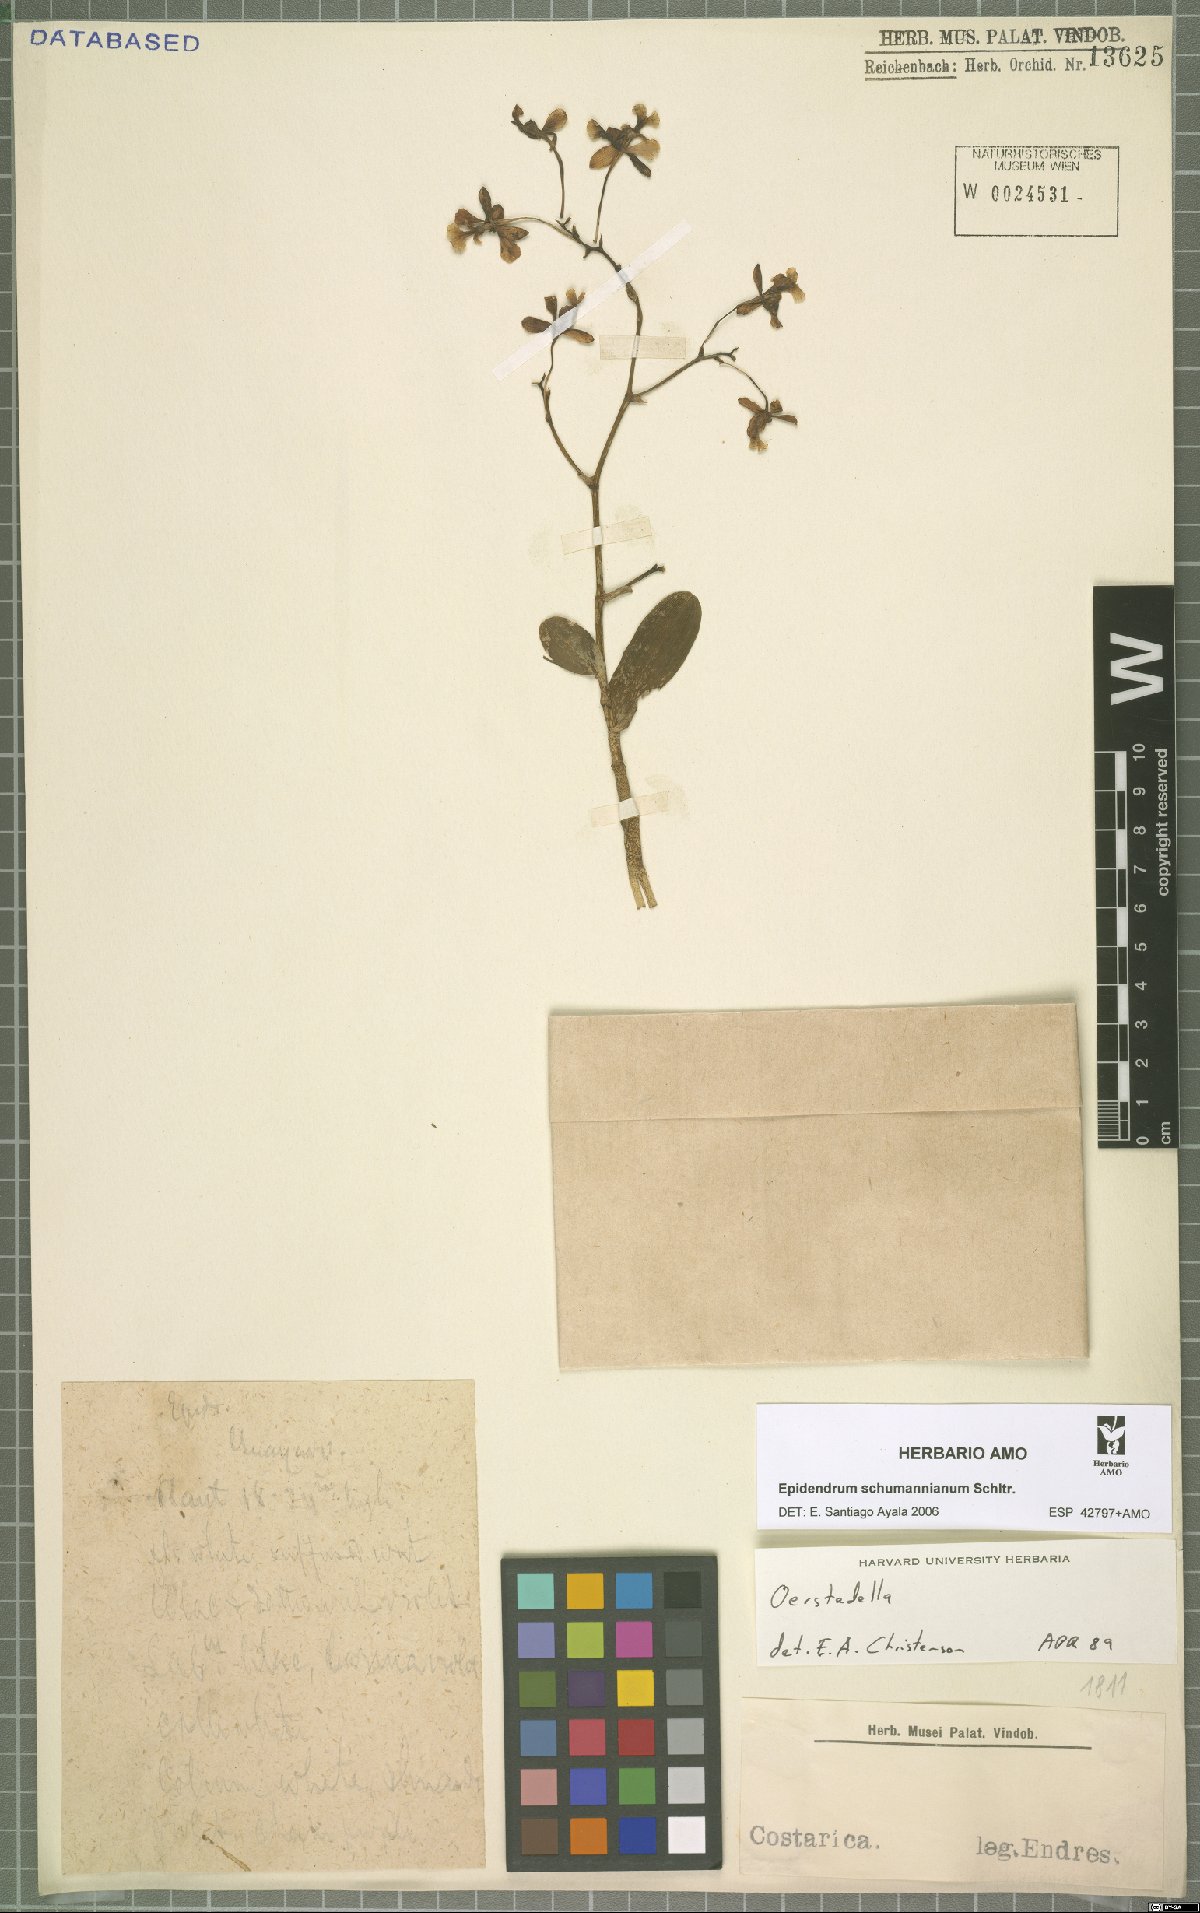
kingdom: Plantae
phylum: Tracheophyta
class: Liliopsida
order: Asparagales
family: Orchidaceae
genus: Epidendrum
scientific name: Epidendrum schumannianum
